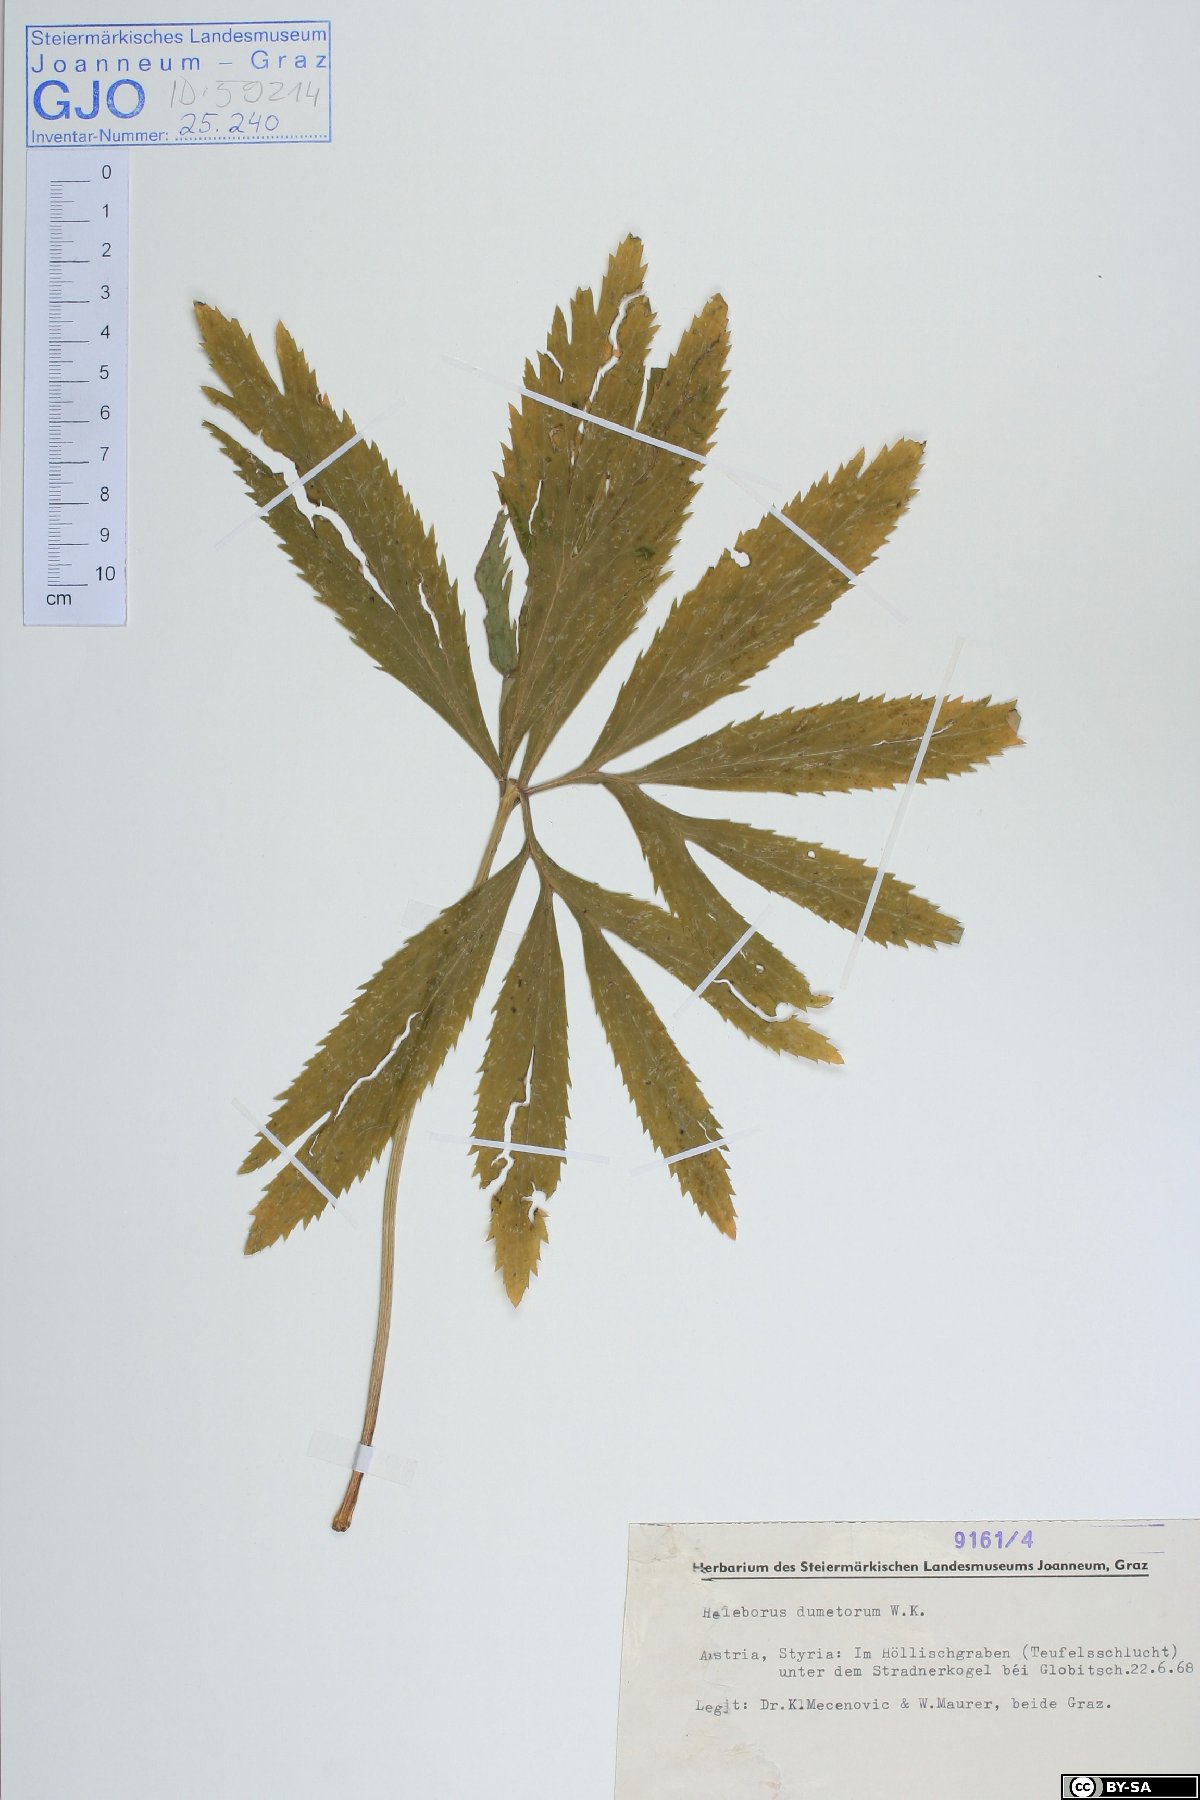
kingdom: Plantae
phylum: Tracheophyta
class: Magnoliopsida
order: Ranunculales
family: Ranunculaceae
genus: Helleborus
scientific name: Helleborus dumetorum
